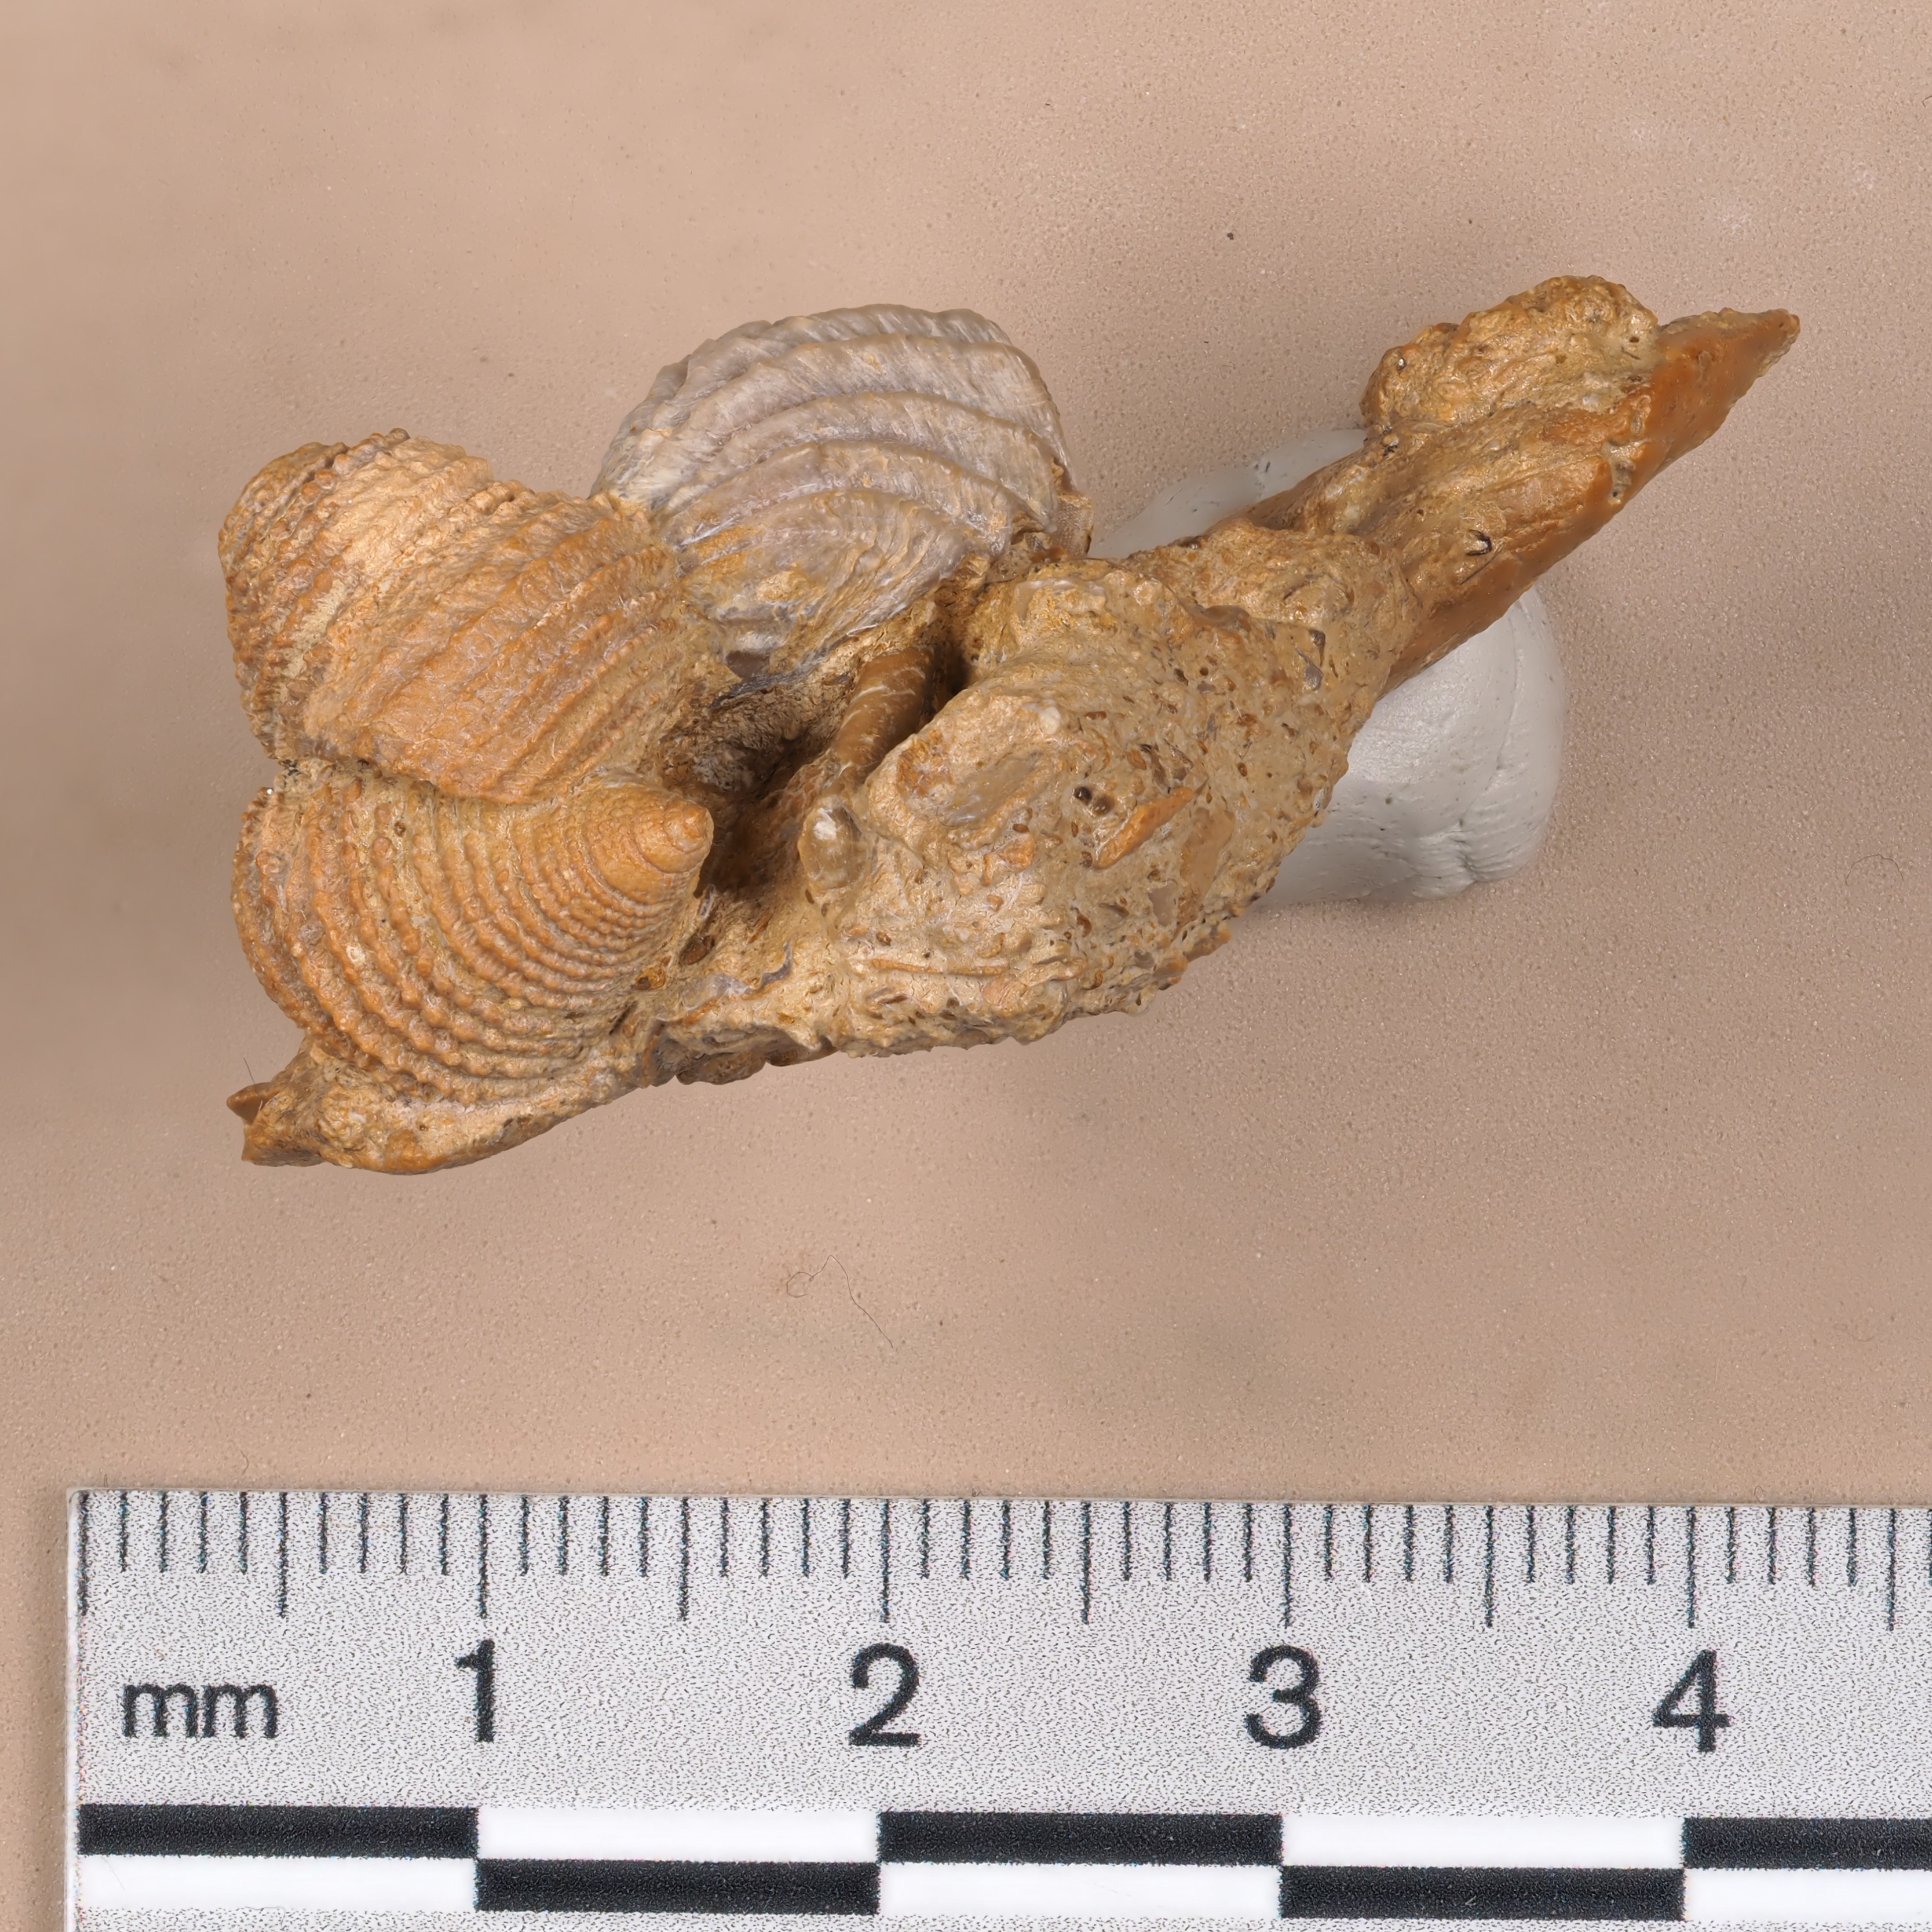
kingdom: Animalia
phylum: Mollusca
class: Gastropoda
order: Seguenziida
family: Eucyclidae
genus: Ooliticia
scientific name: Ooliticia
